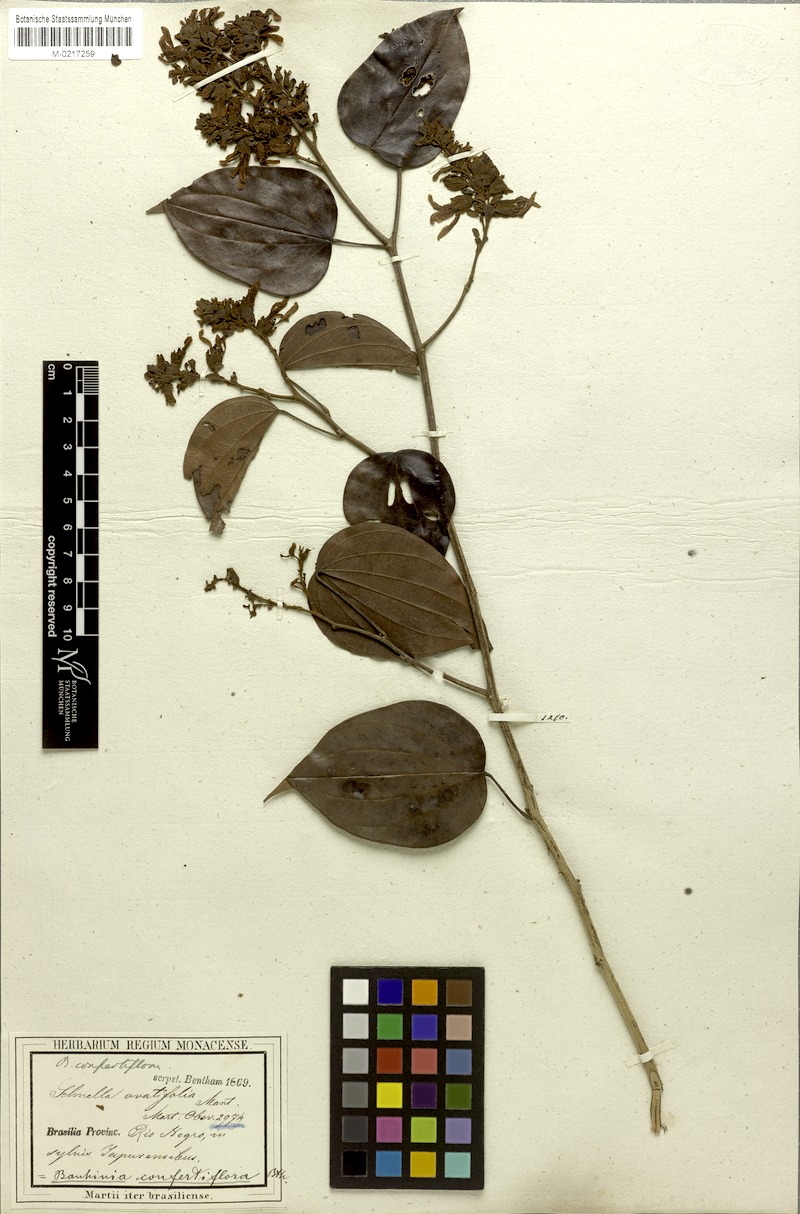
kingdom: Plantae
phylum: Tracheophyta
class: Magnoliopsida
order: Fabales
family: Fabaceae
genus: Schnella
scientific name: Schnella confertiflora
